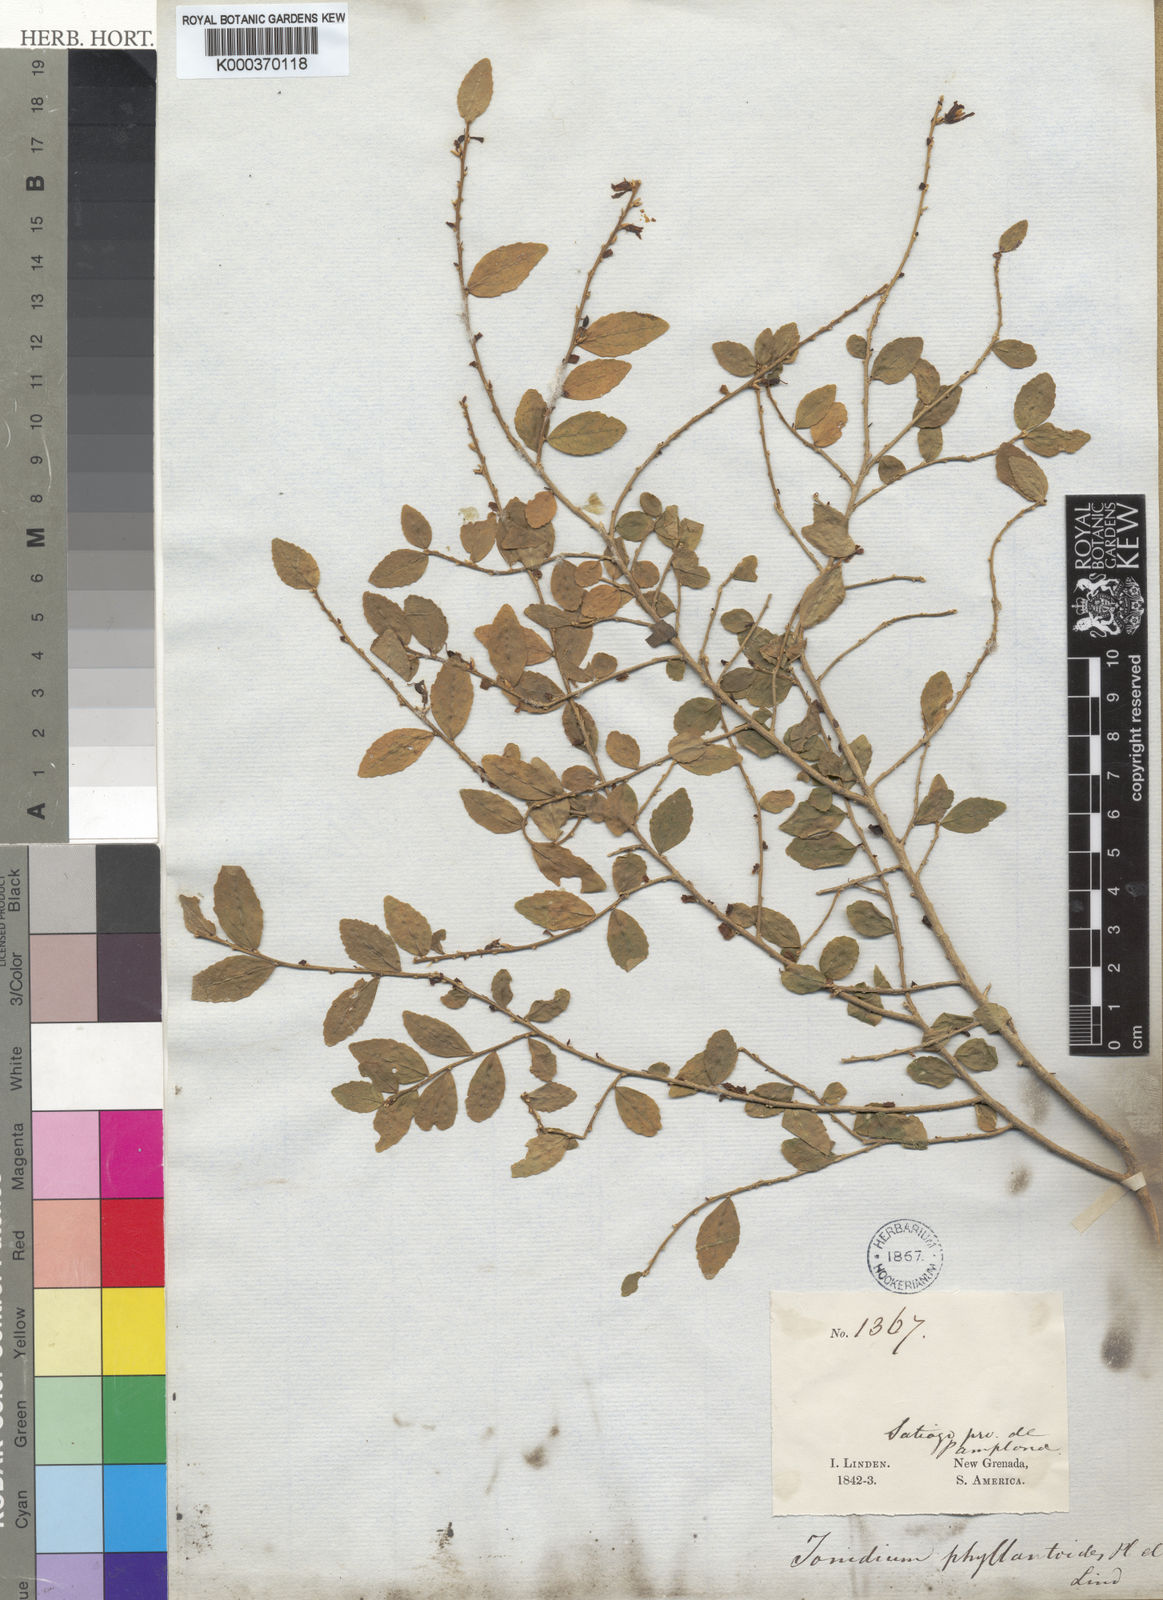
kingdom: Plantae
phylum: Tracheophyta
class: Magnoliopsida
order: Malpighiales
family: Violaceae
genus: Hybanthus
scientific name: Hybanthus
